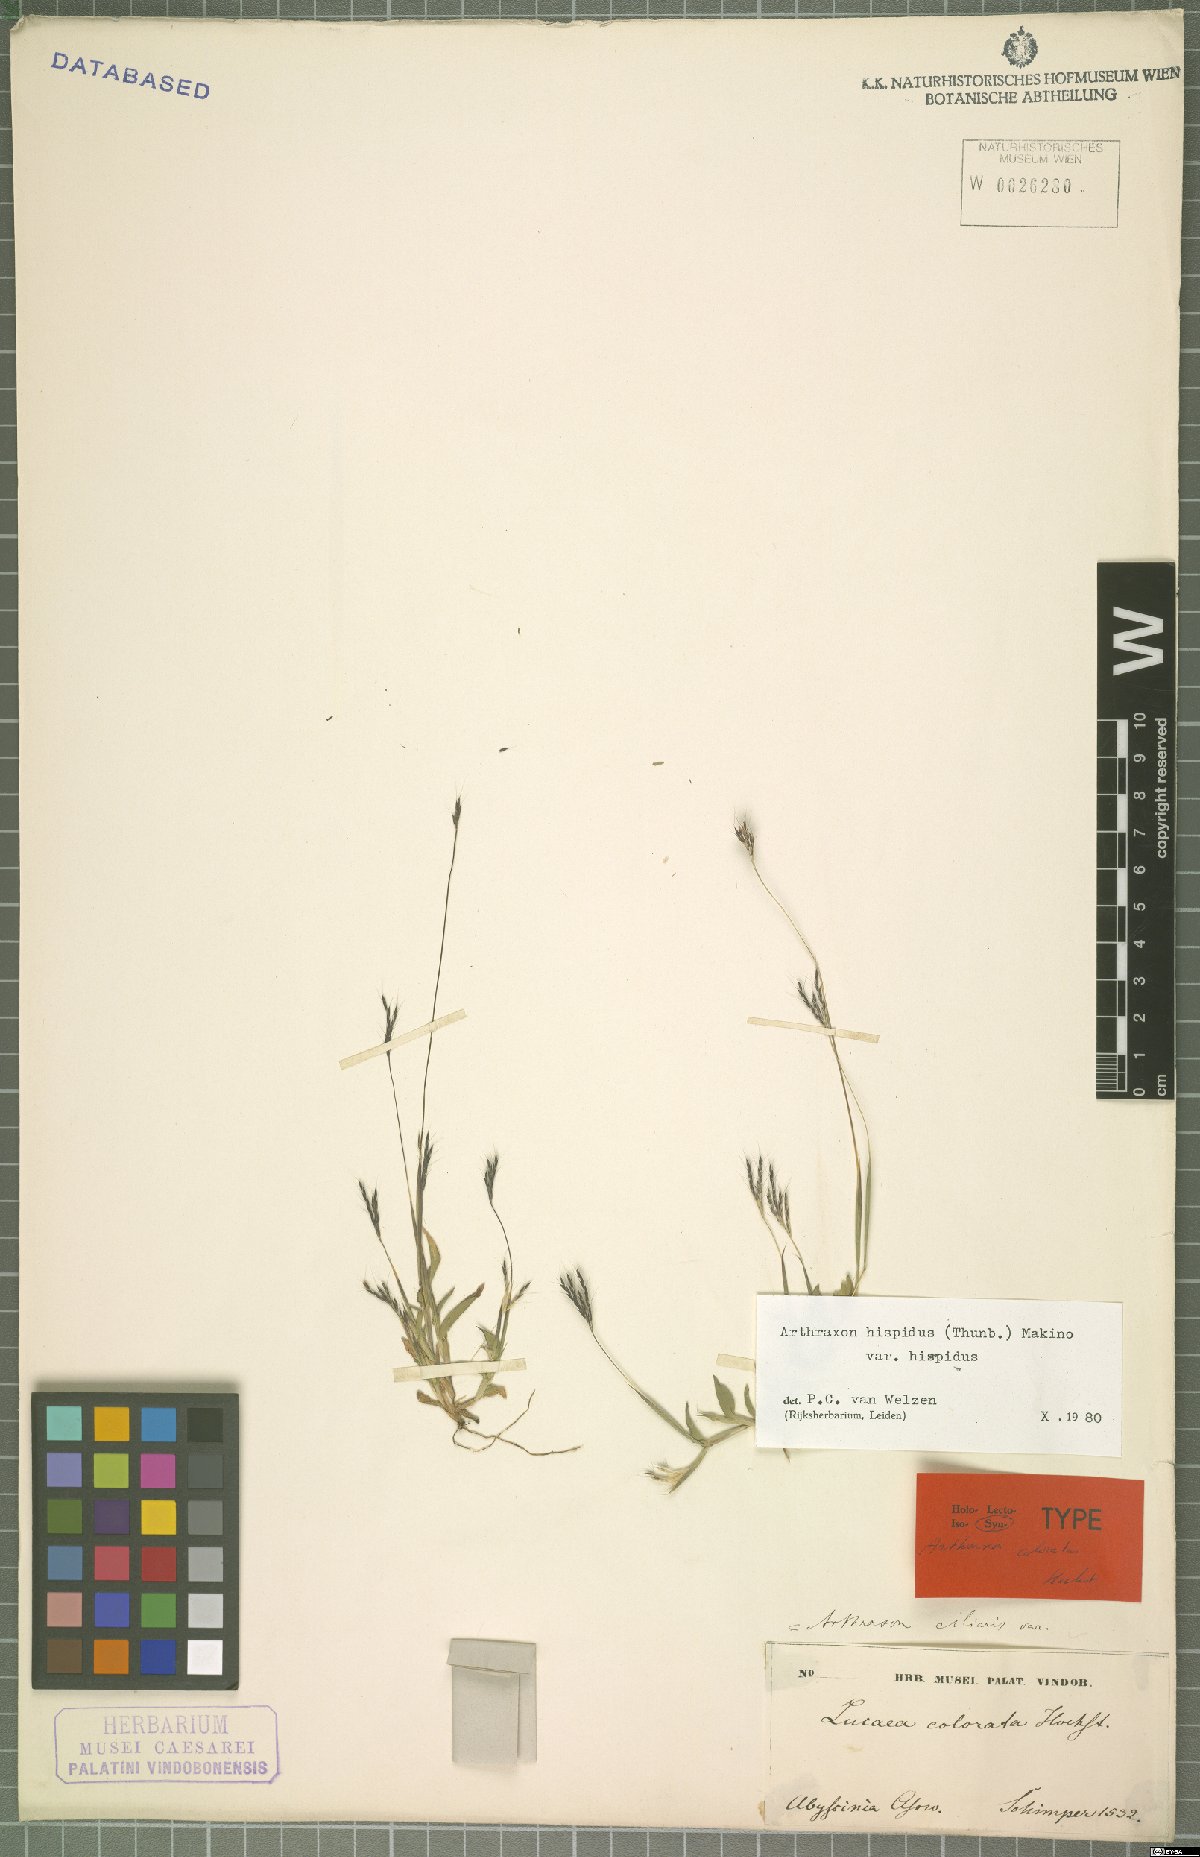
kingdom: Plantae
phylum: Tracheophyta
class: Liliopsida
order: Poales
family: Poaceae
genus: Arthraxon
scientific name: Arthraxon hispidus
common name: Small carpgrass
